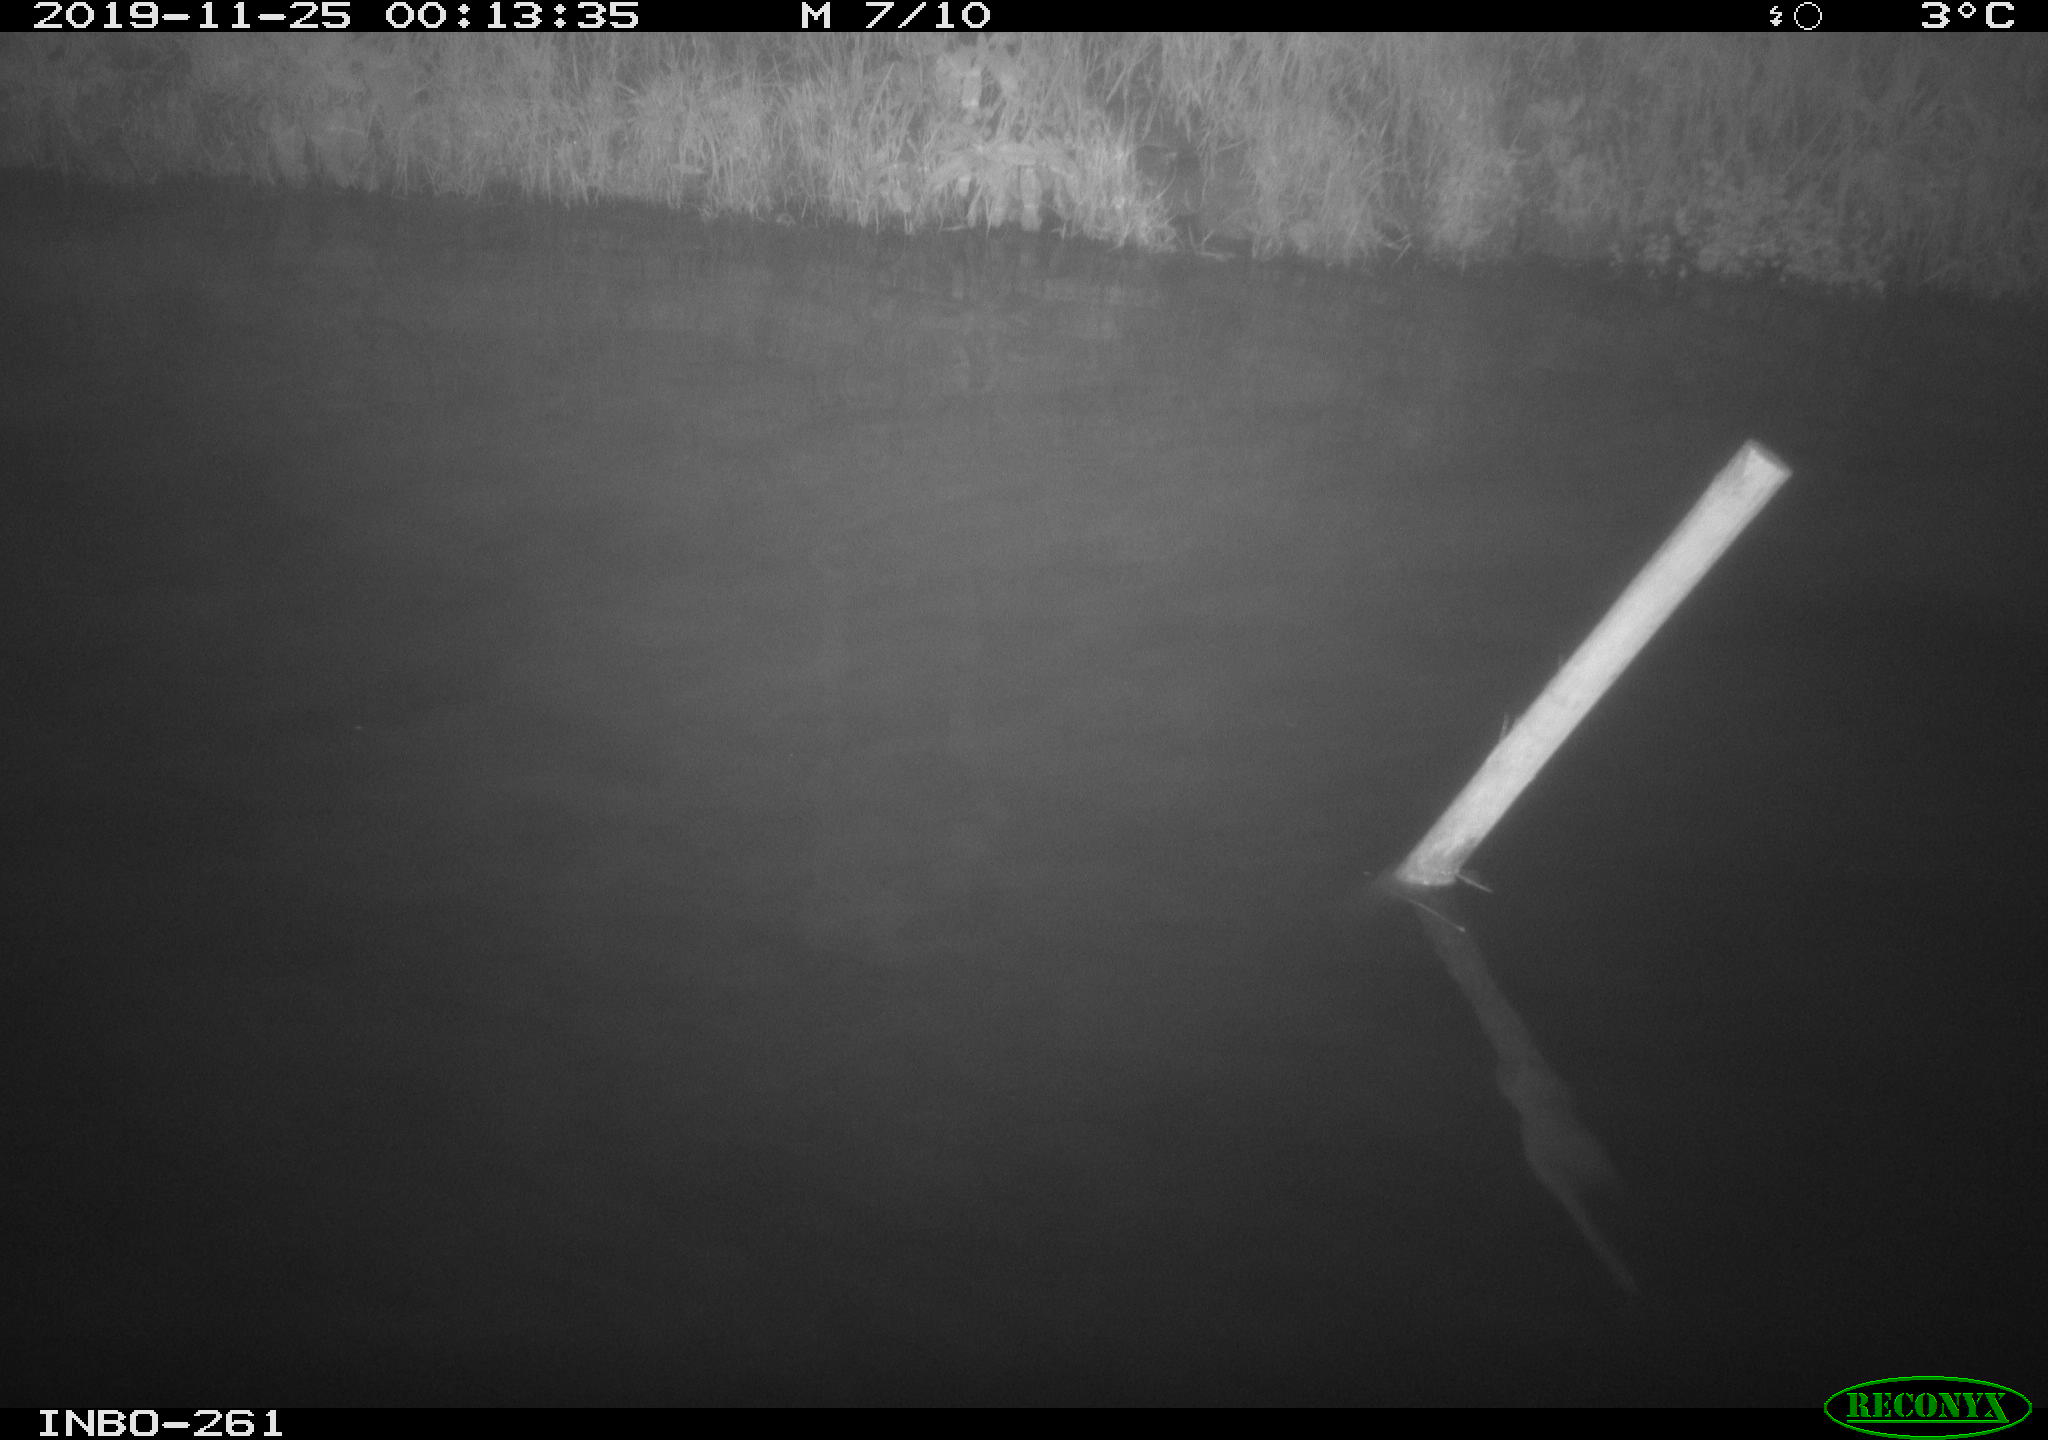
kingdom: Animalia
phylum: Chordata
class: Aves
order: Anseriformes
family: Anatidae
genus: Anas
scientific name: Anas platyrhynchos
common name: Mallard
